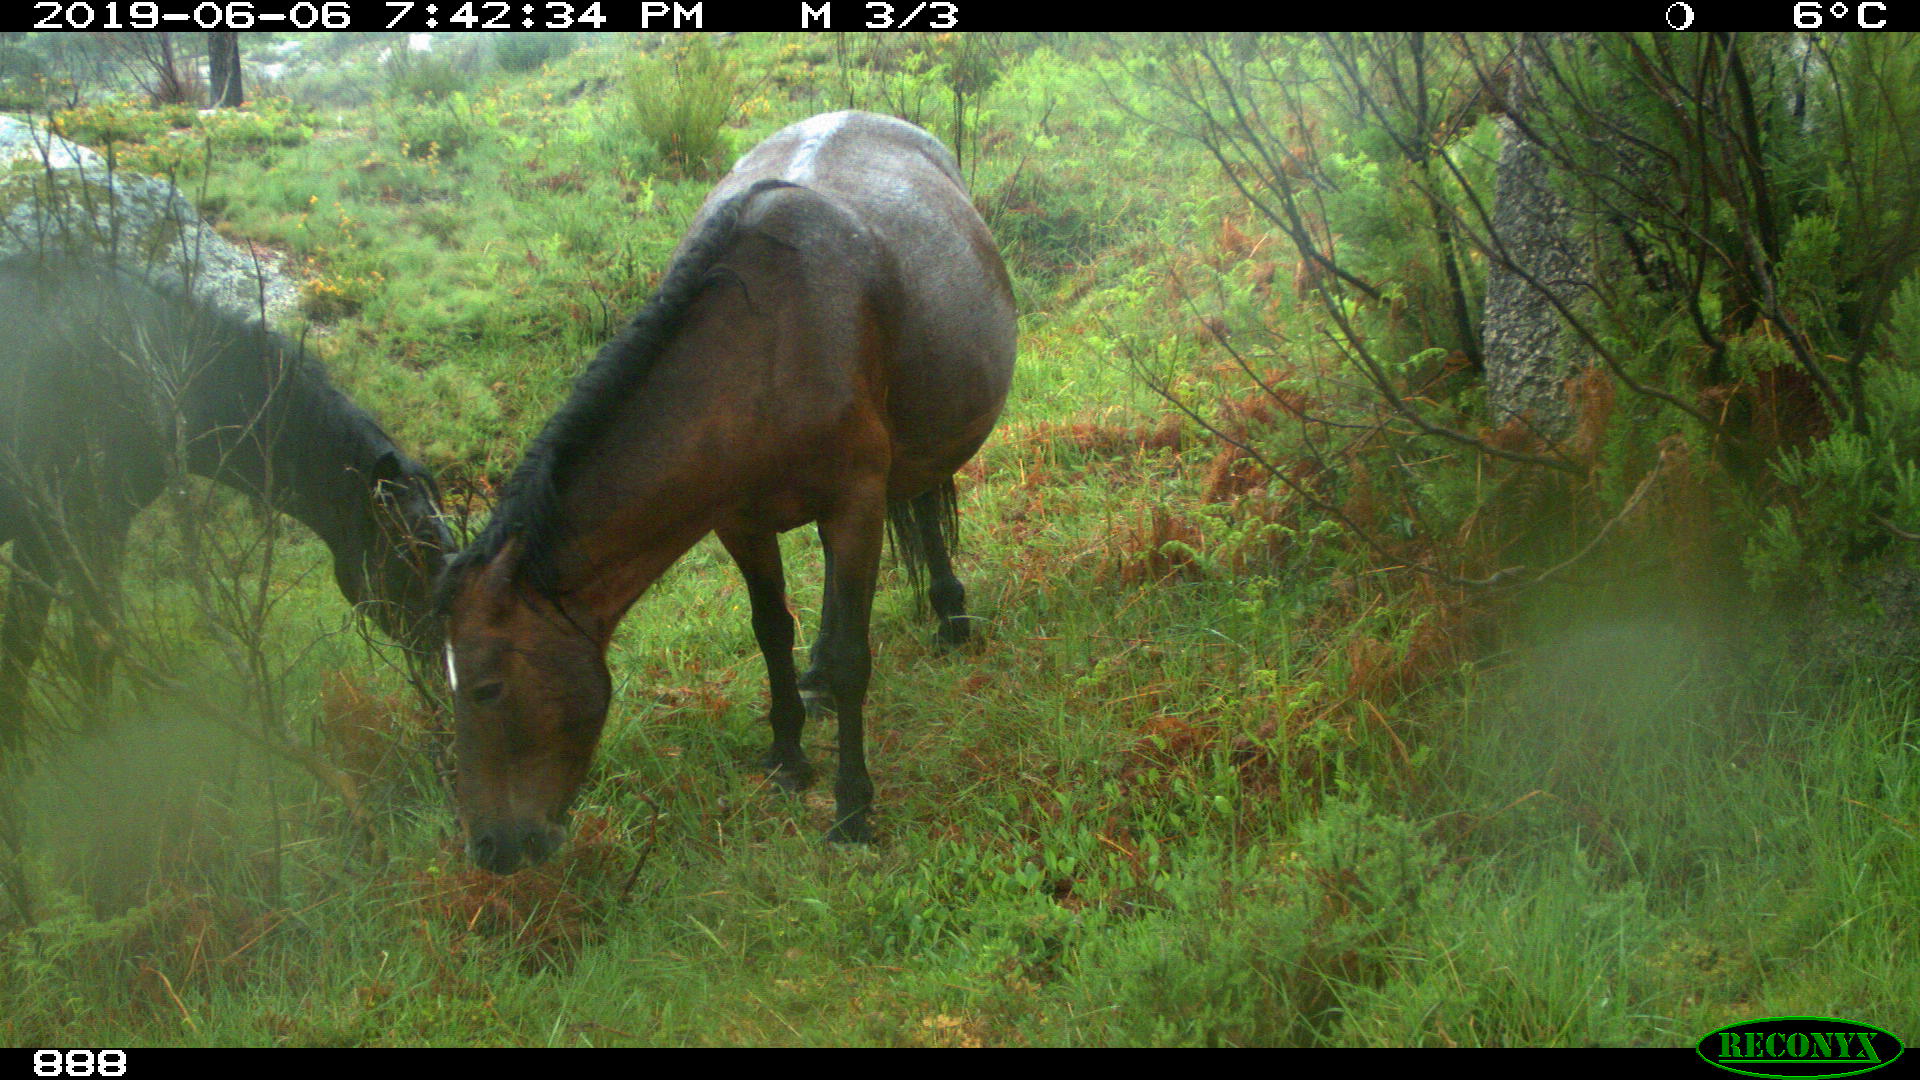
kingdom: Animalia
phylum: Chordata
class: Mammalia
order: Perissodactyla
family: Equidae
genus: Equus
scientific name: Equus caballus
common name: Horse
